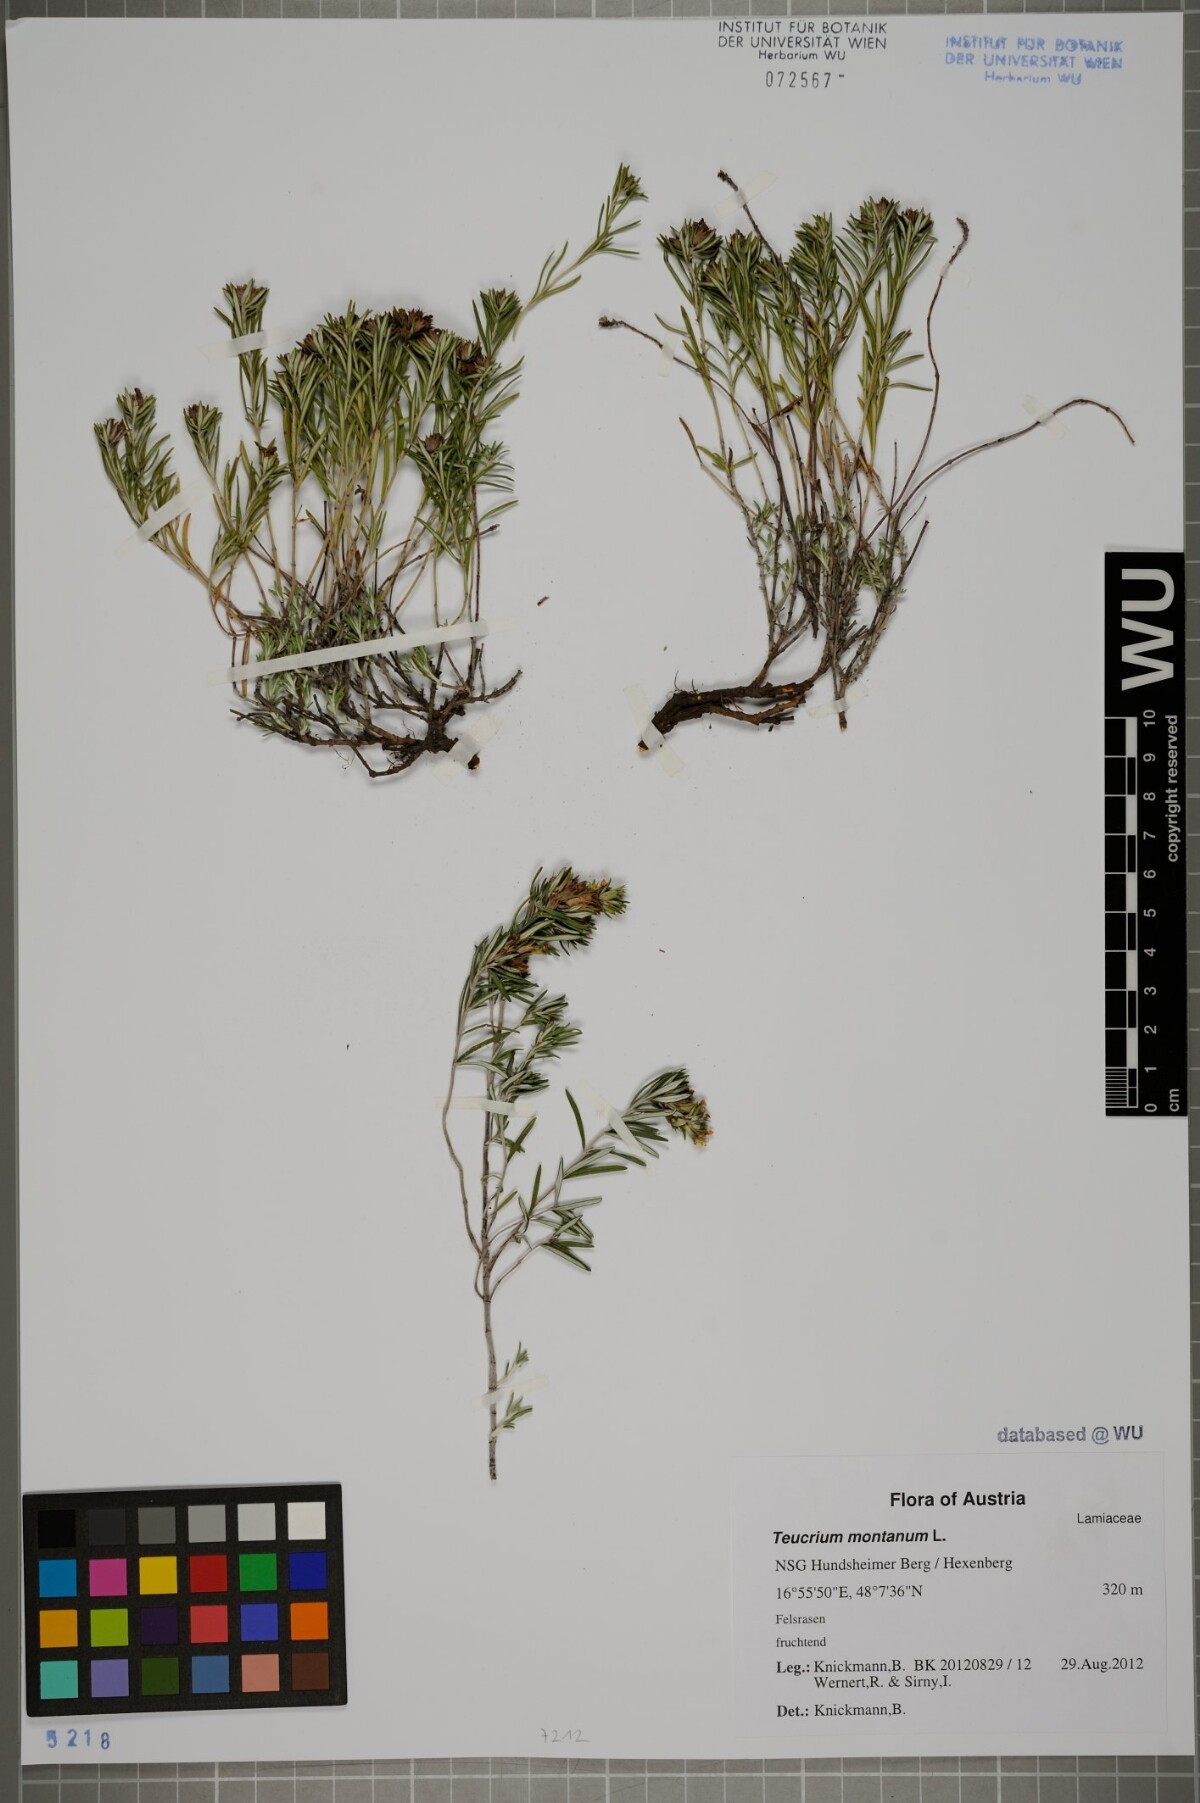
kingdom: Plantae
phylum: Tracheophyta
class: Magnoliopsida
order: Lamiales
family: Lamiaceae
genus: Teucrium
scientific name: Teucrium montanum
